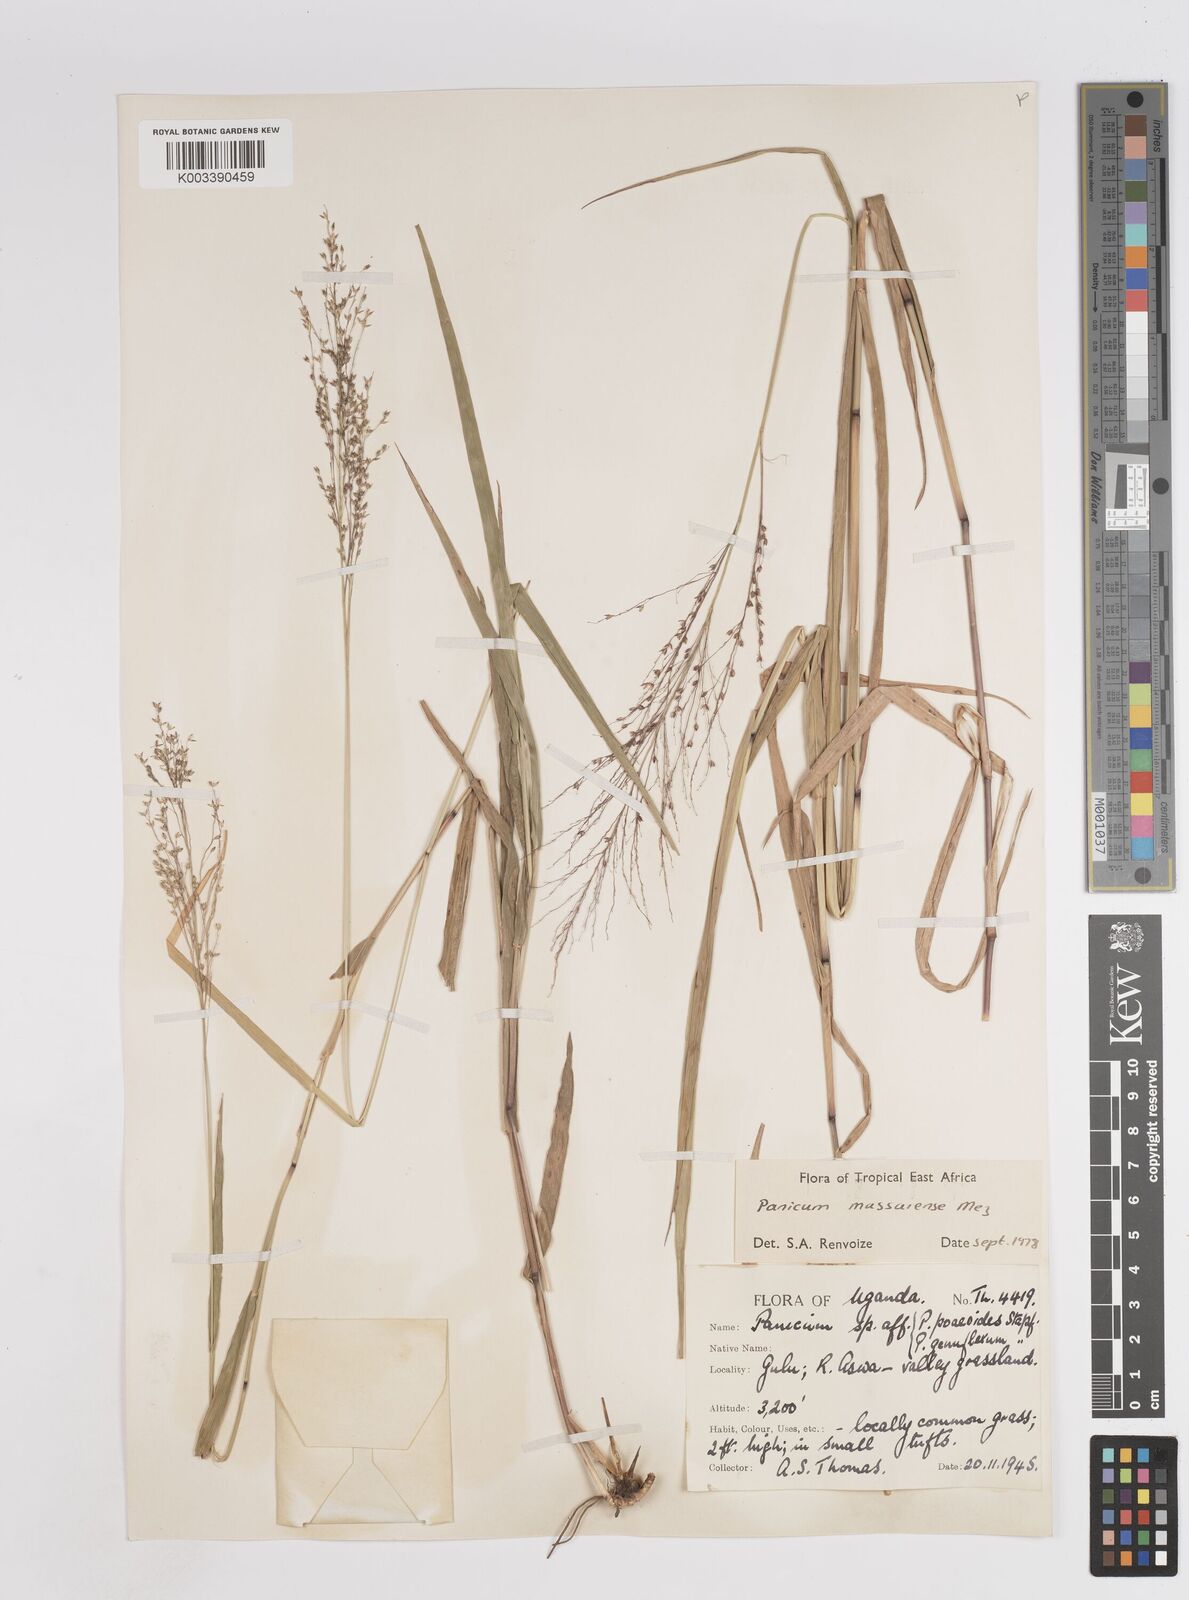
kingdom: Plantae
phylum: Tracheophyta
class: Liliopsida
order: Poales
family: Poaceae
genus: Panicum
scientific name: Panicum massaiense
